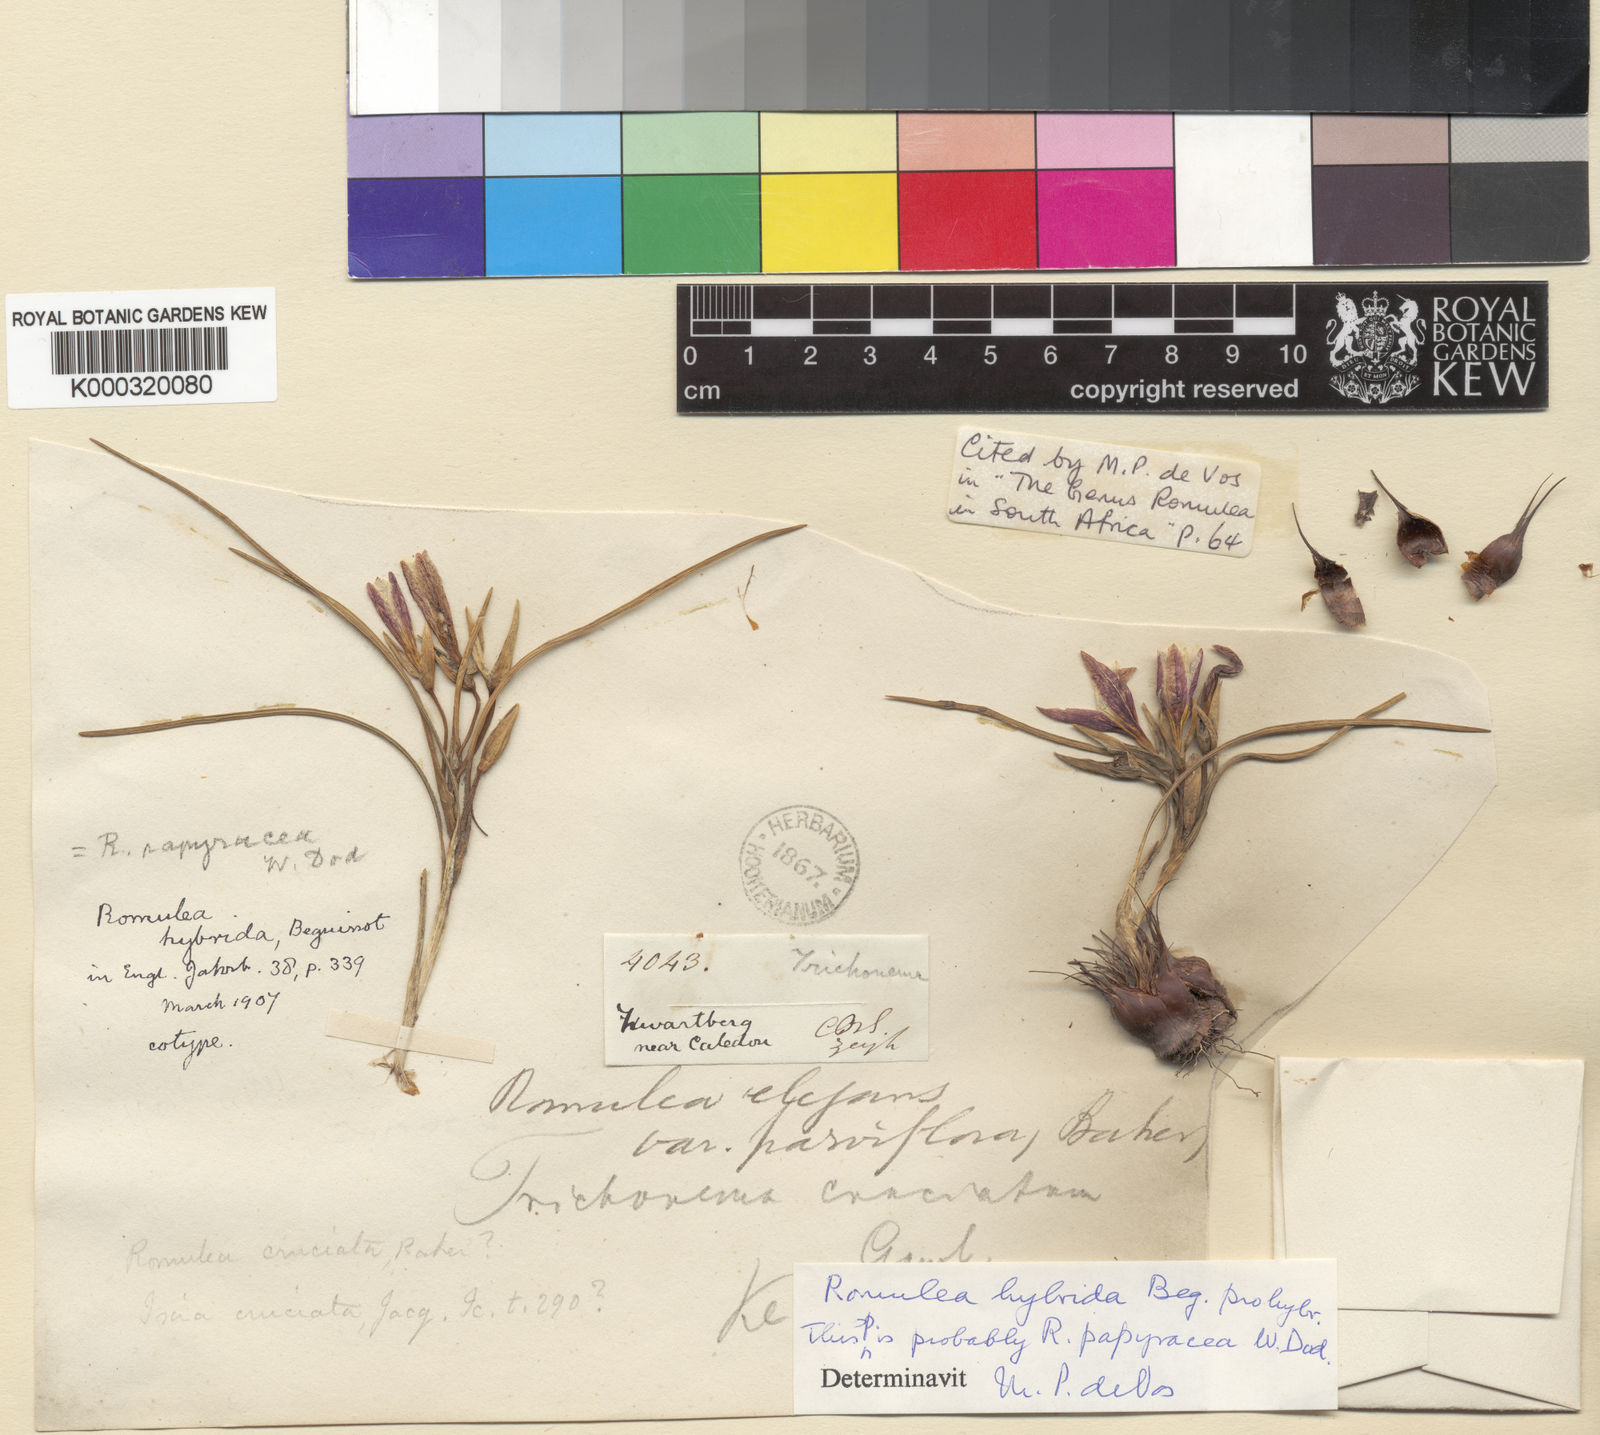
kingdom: Plantae
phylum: Tracheophyta
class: Liliopsida
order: Asparagales
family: Iridaceae
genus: Romulea
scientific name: Romulea
